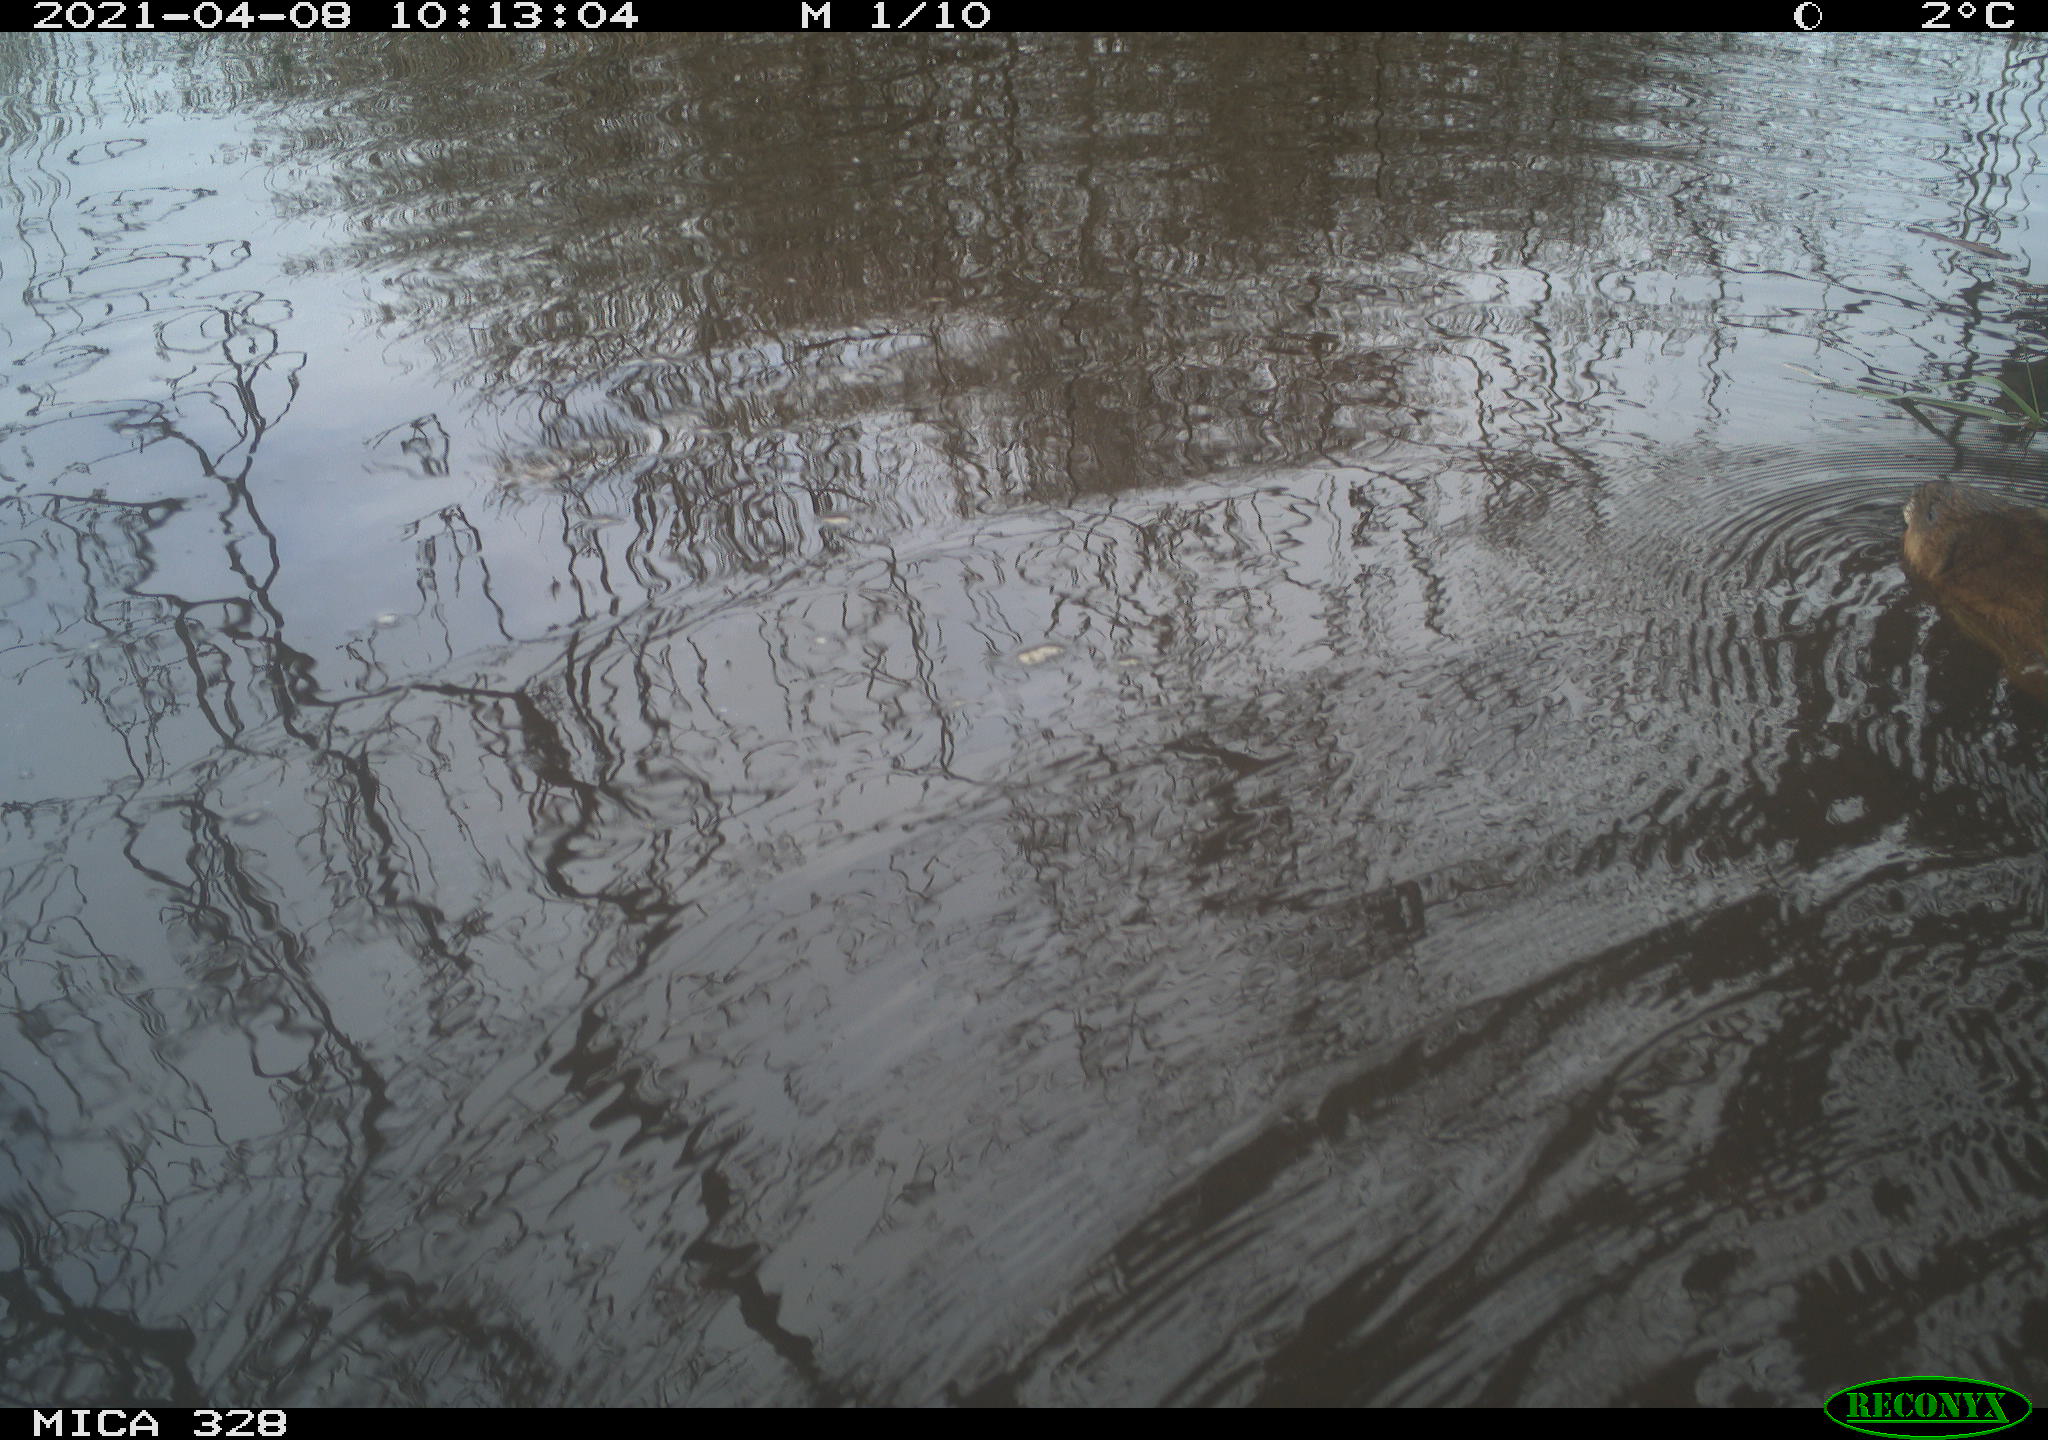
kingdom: Animalia
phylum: Chordata
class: Mammalia
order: Rodentia
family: Cricetidae
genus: Ondatra
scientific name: Ondatra zibethicus
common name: Muskrat
